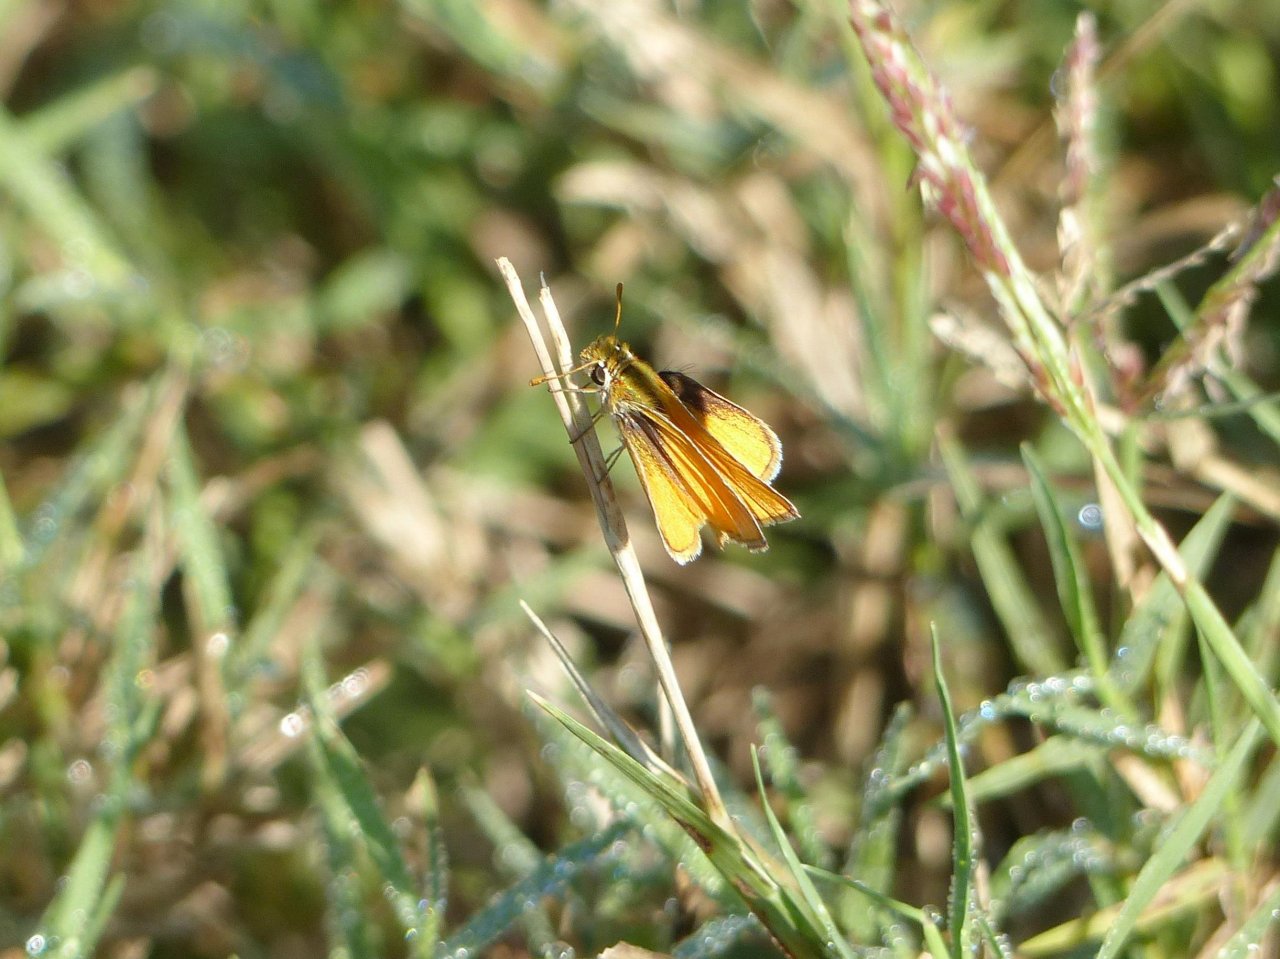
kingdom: Animalia
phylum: Arthropoda
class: Insecta
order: Lepidoptera
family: Hesperiidae
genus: Copaeodes
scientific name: Copaeodes minima
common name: Southern Skipperling
